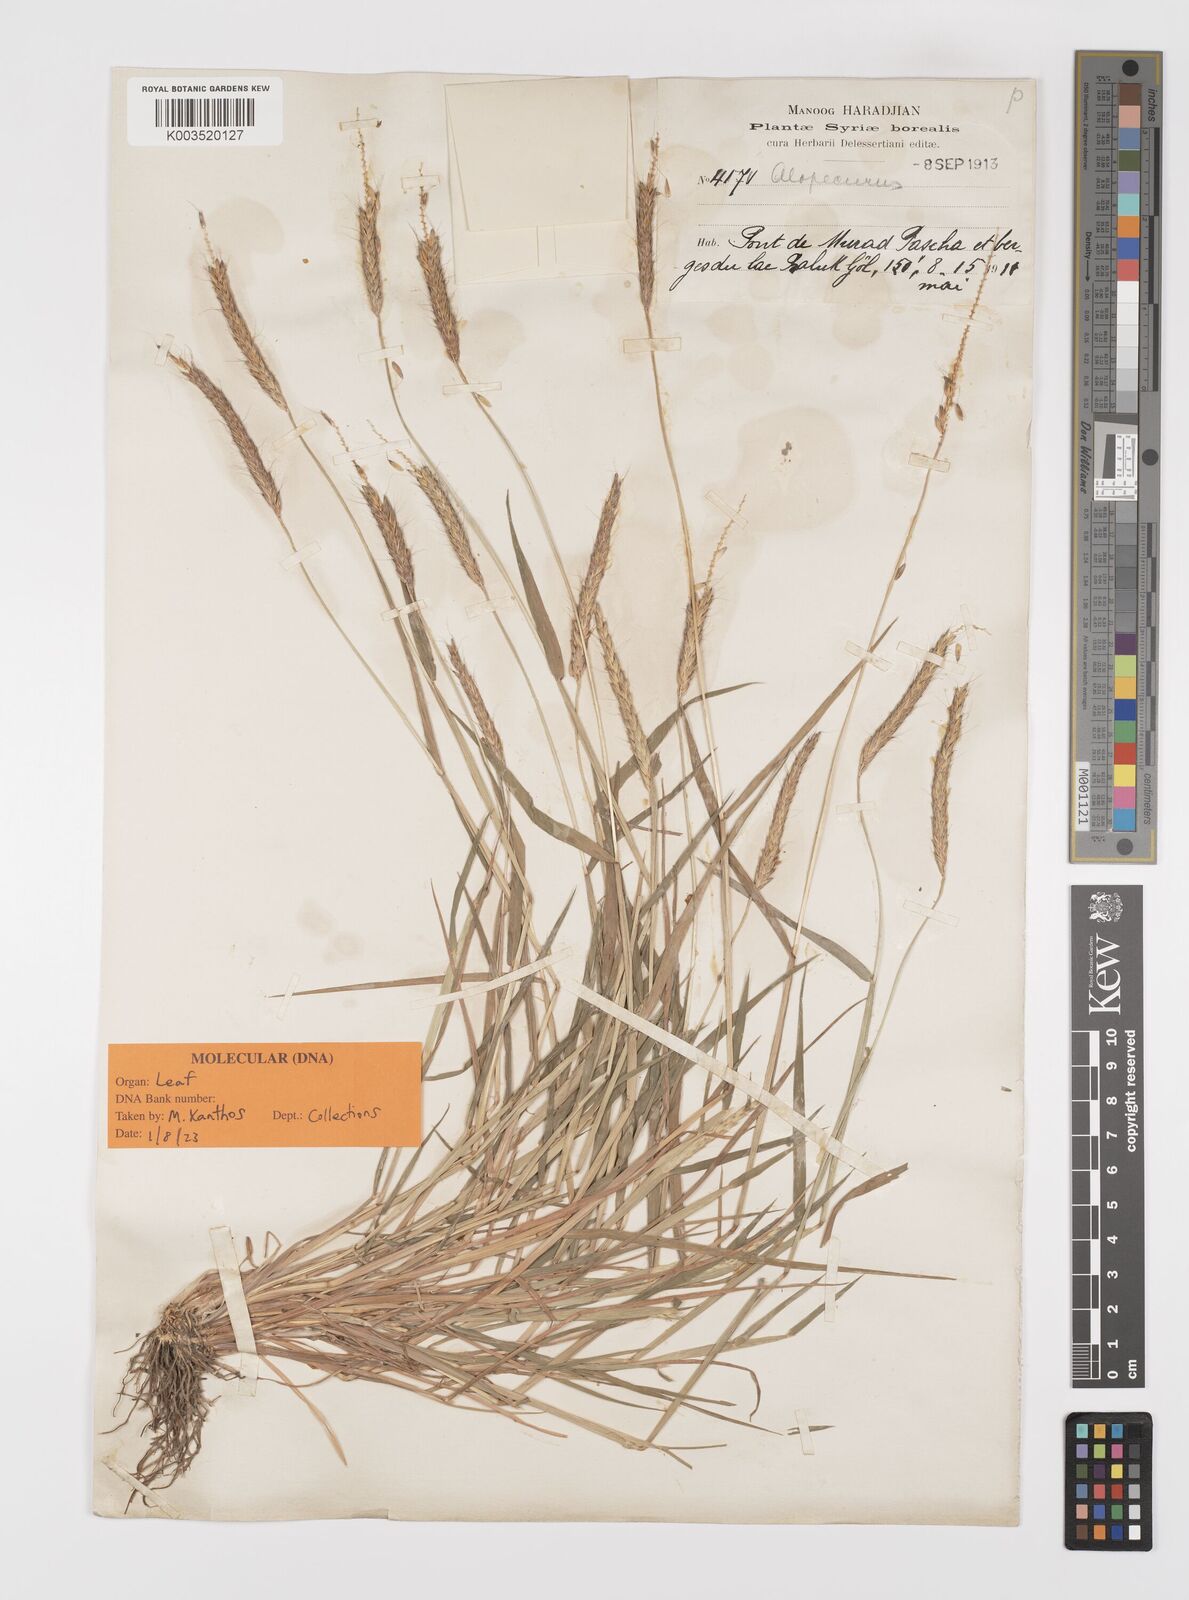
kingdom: Plantae
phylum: Tracheophyta
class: Liliopsida
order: Poales
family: Poaceae
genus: Alopecurus
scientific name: Alopecurus myosuroides
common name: Black-grass
